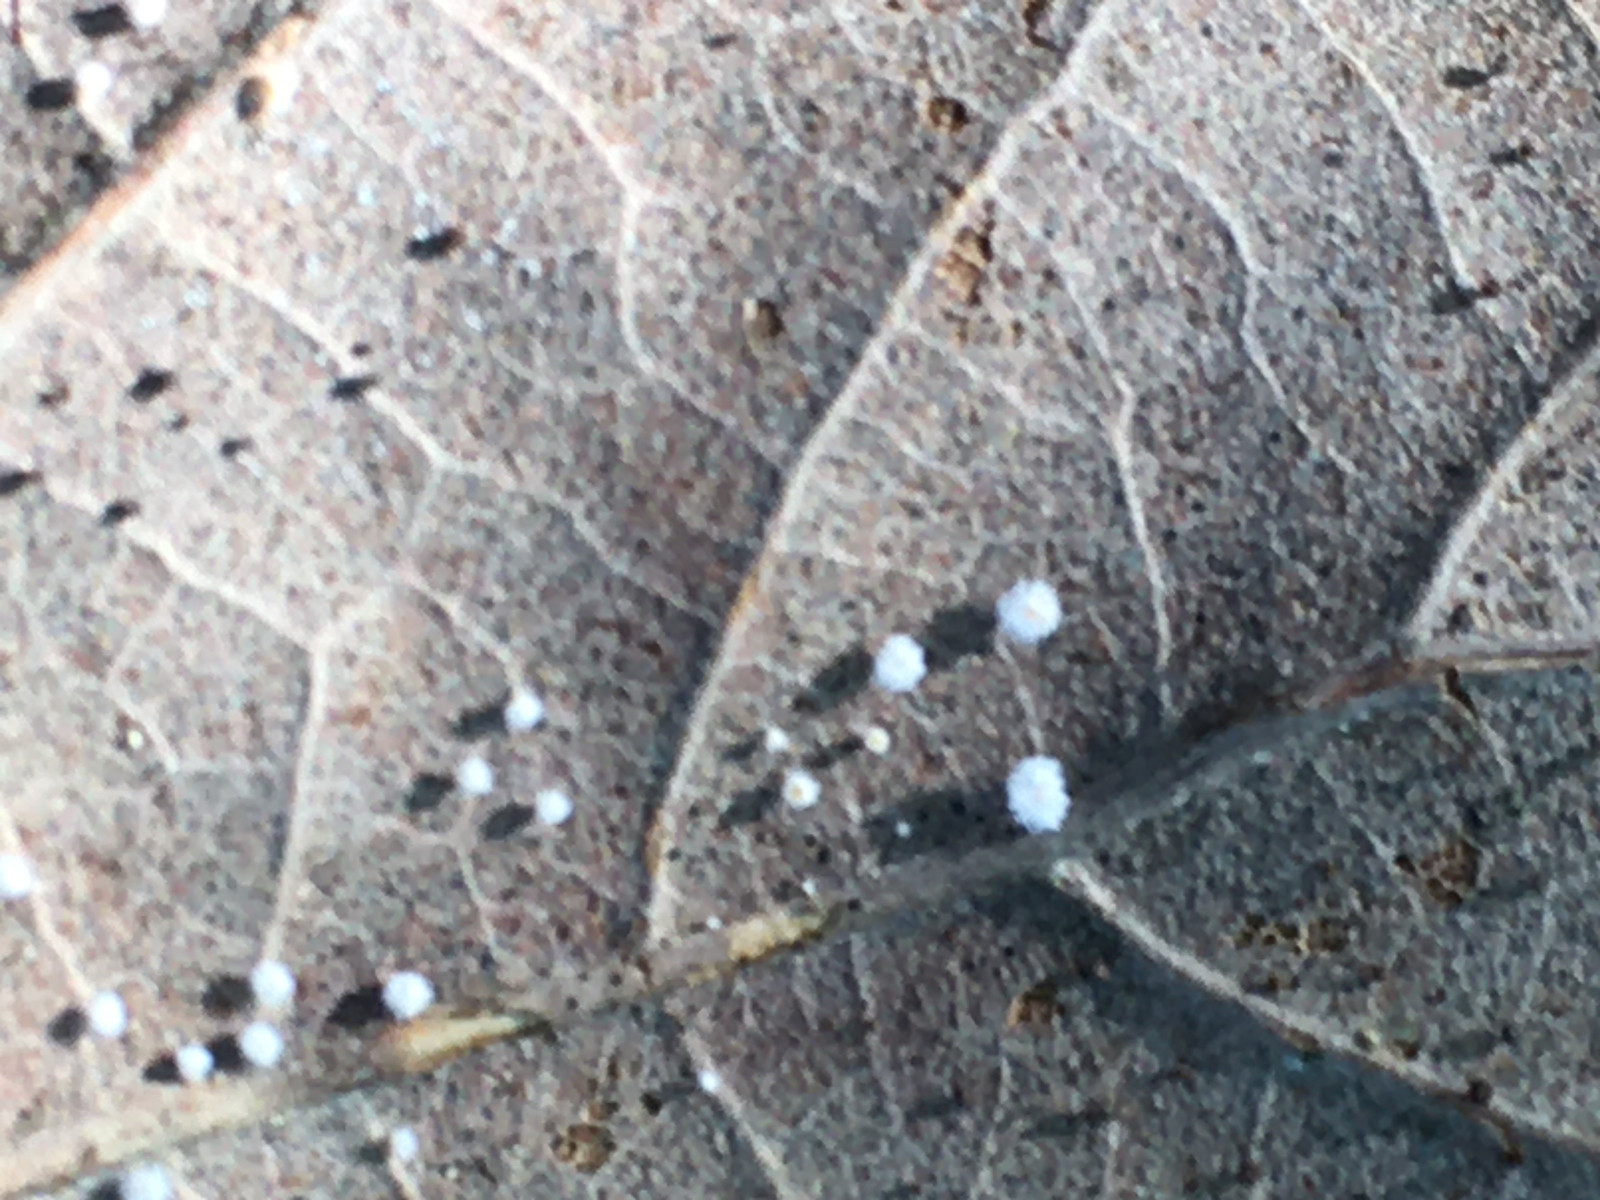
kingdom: Fungi
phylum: Ascomycota
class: Leotiomycetes
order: Helotiales
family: Hyaloscyphaceae
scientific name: Hyaloscyphaceae
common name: frynseskivefamilien
